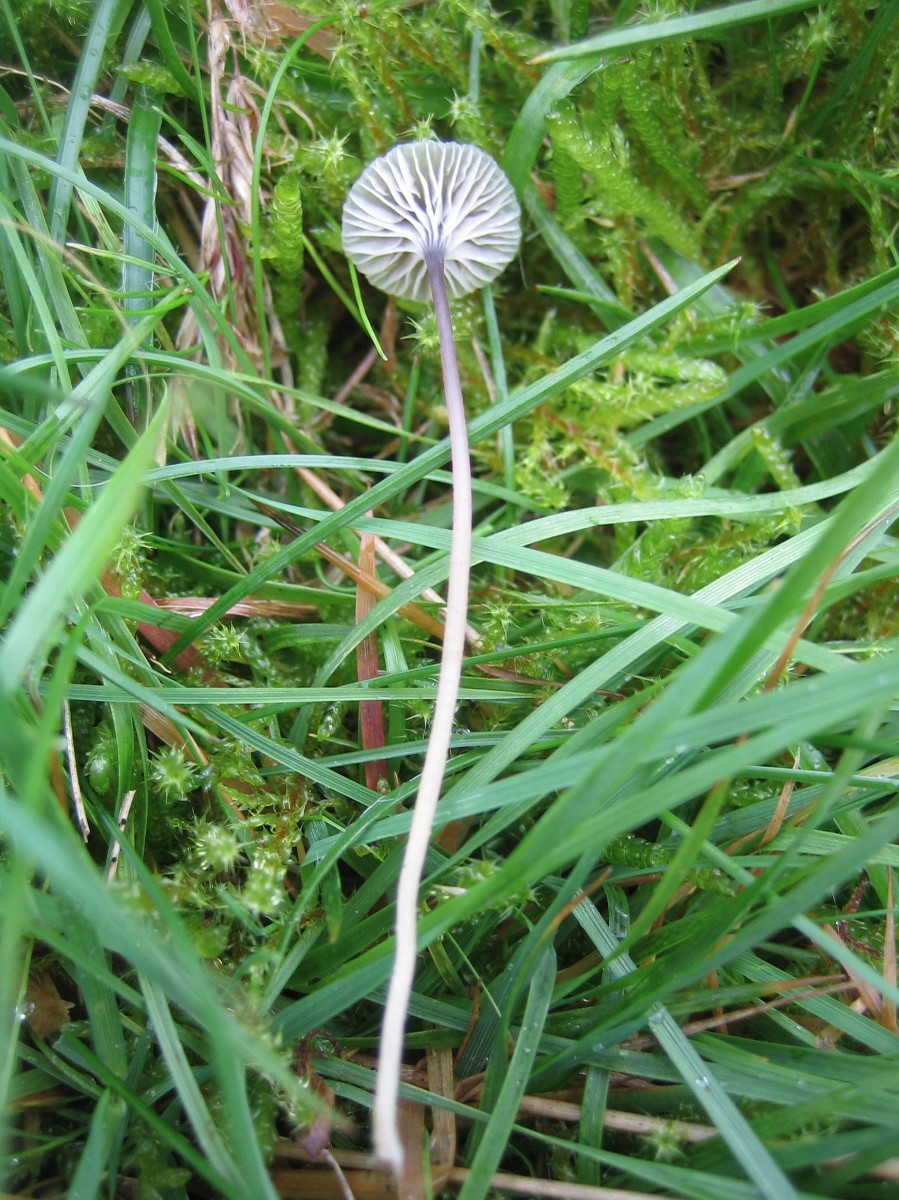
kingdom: Fungi
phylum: Basidiomycota
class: Agaricomycetes
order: Hymenochaetales
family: Rickenellaceae
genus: Rickenella
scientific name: Rickenella swartzii
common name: finstokket mosnavlehat
